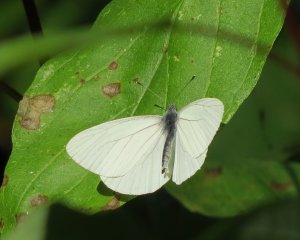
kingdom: Animalia
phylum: Arthropoda
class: Insecta
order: Lepidoptera
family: Pieridae
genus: Pieris
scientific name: Pieris oleracea
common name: Mustard White
